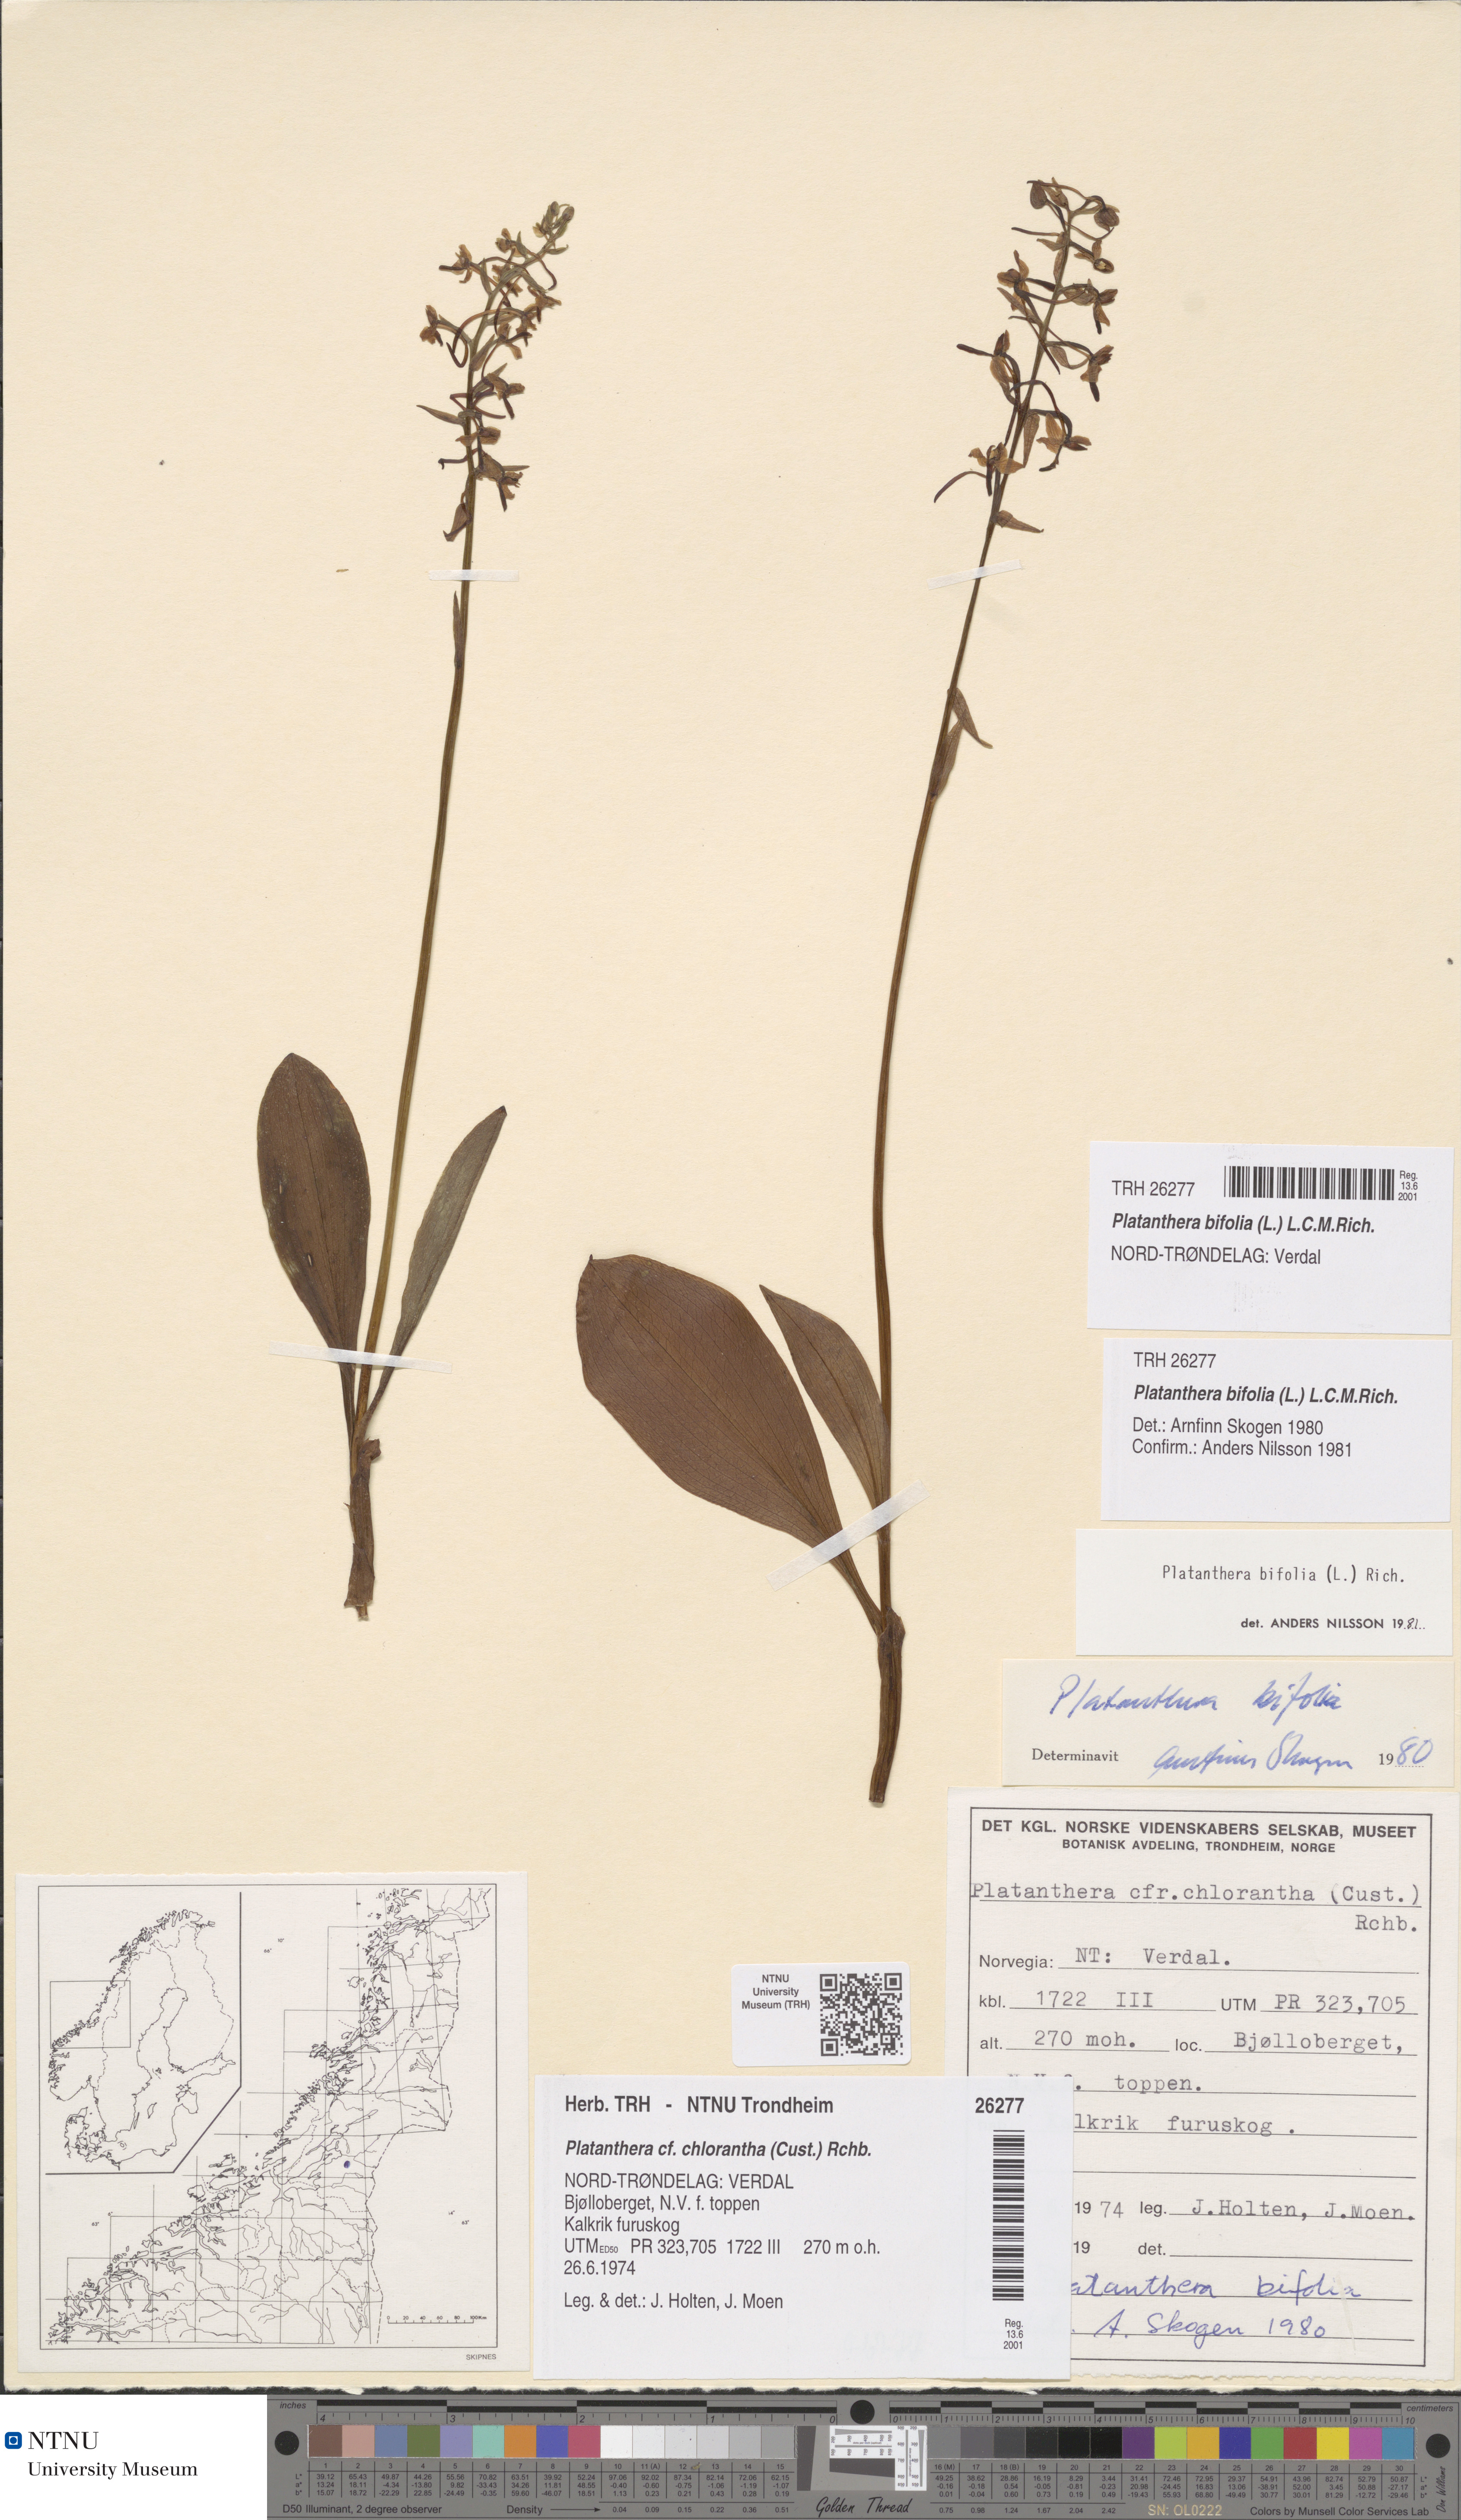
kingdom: Plantae
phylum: Tracheophyta
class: Liliopsida
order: Asparagales
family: Orchidaceae
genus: Platanthera
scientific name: Platanthera bifolia
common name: Lesser butterfly-orchid
